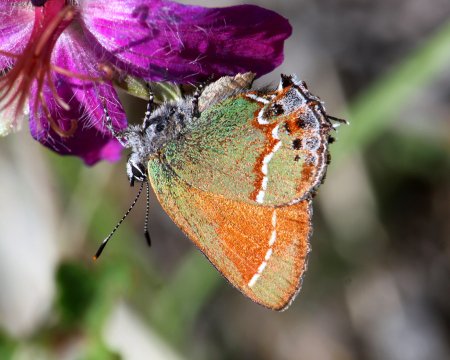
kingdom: Animalia
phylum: Arthropoda
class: Insecta
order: Lepidoptera
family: Lycaenidae
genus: Mitoura
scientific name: Mitoura gryneus
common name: Juniper Hairstreak
